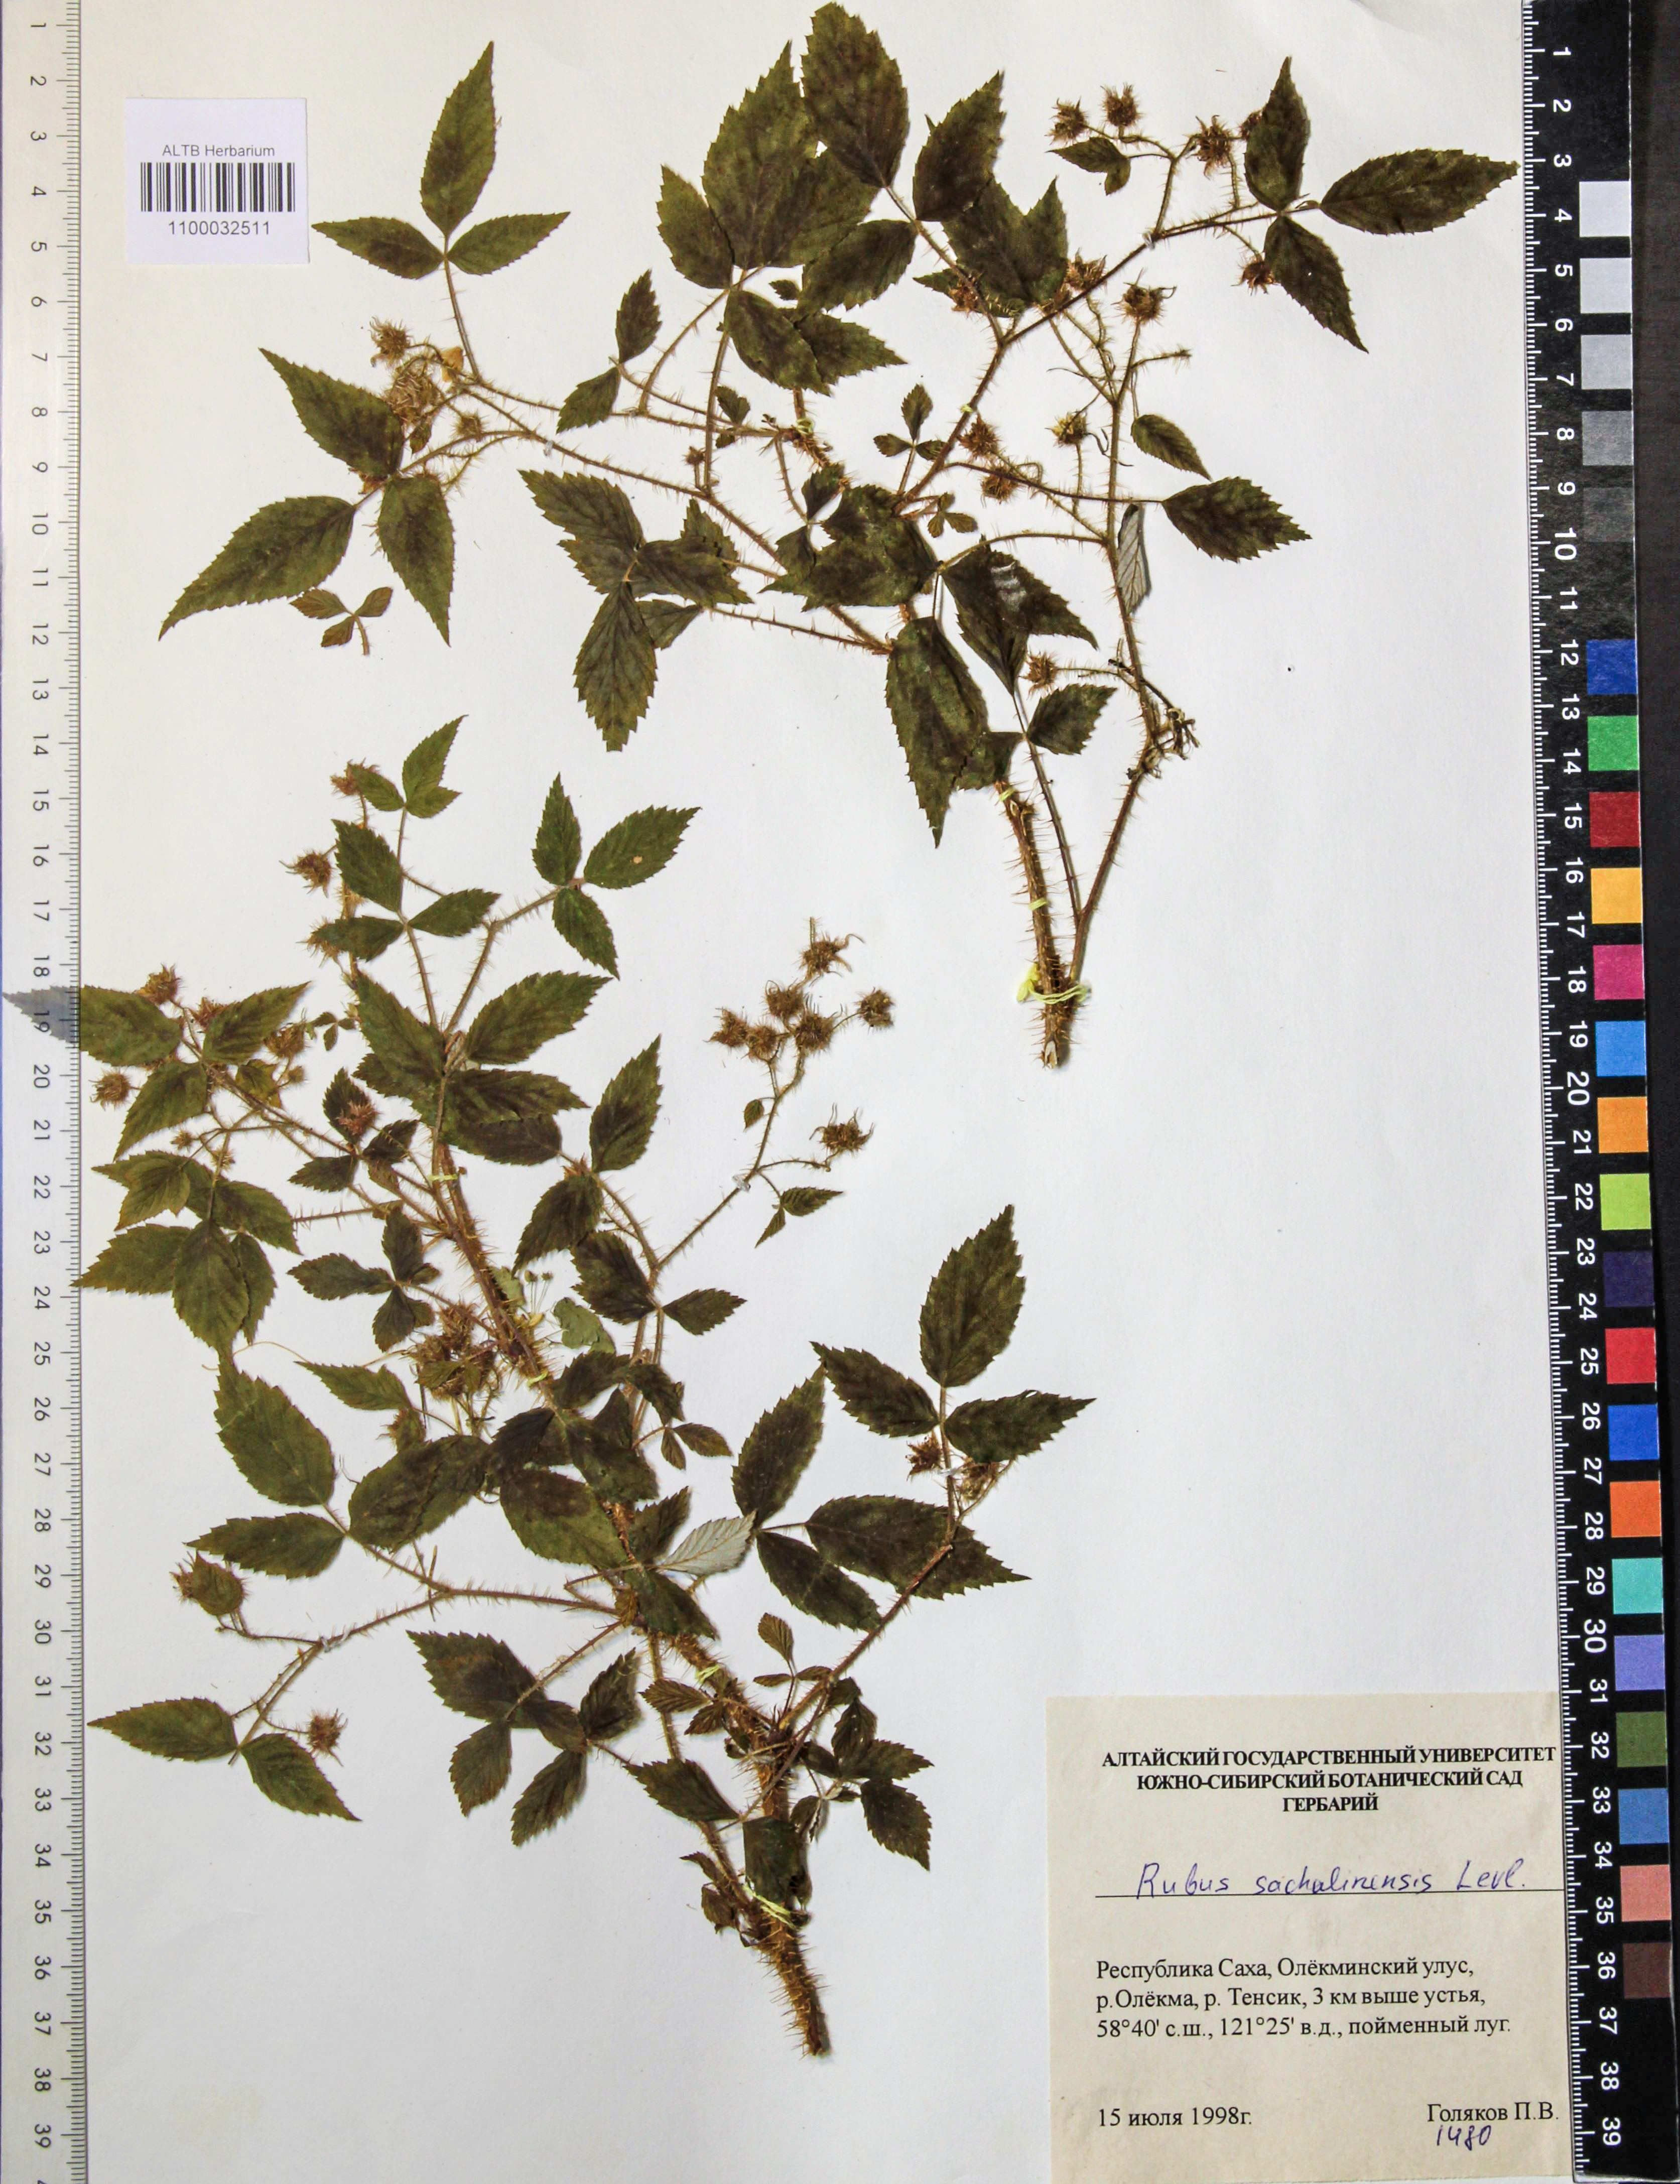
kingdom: Plantae
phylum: Tracheophyta
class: Magnoliopsida
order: Rosales
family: Rosaceae
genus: Rubus
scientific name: Rubus sachalinensis
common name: Red raspberry
